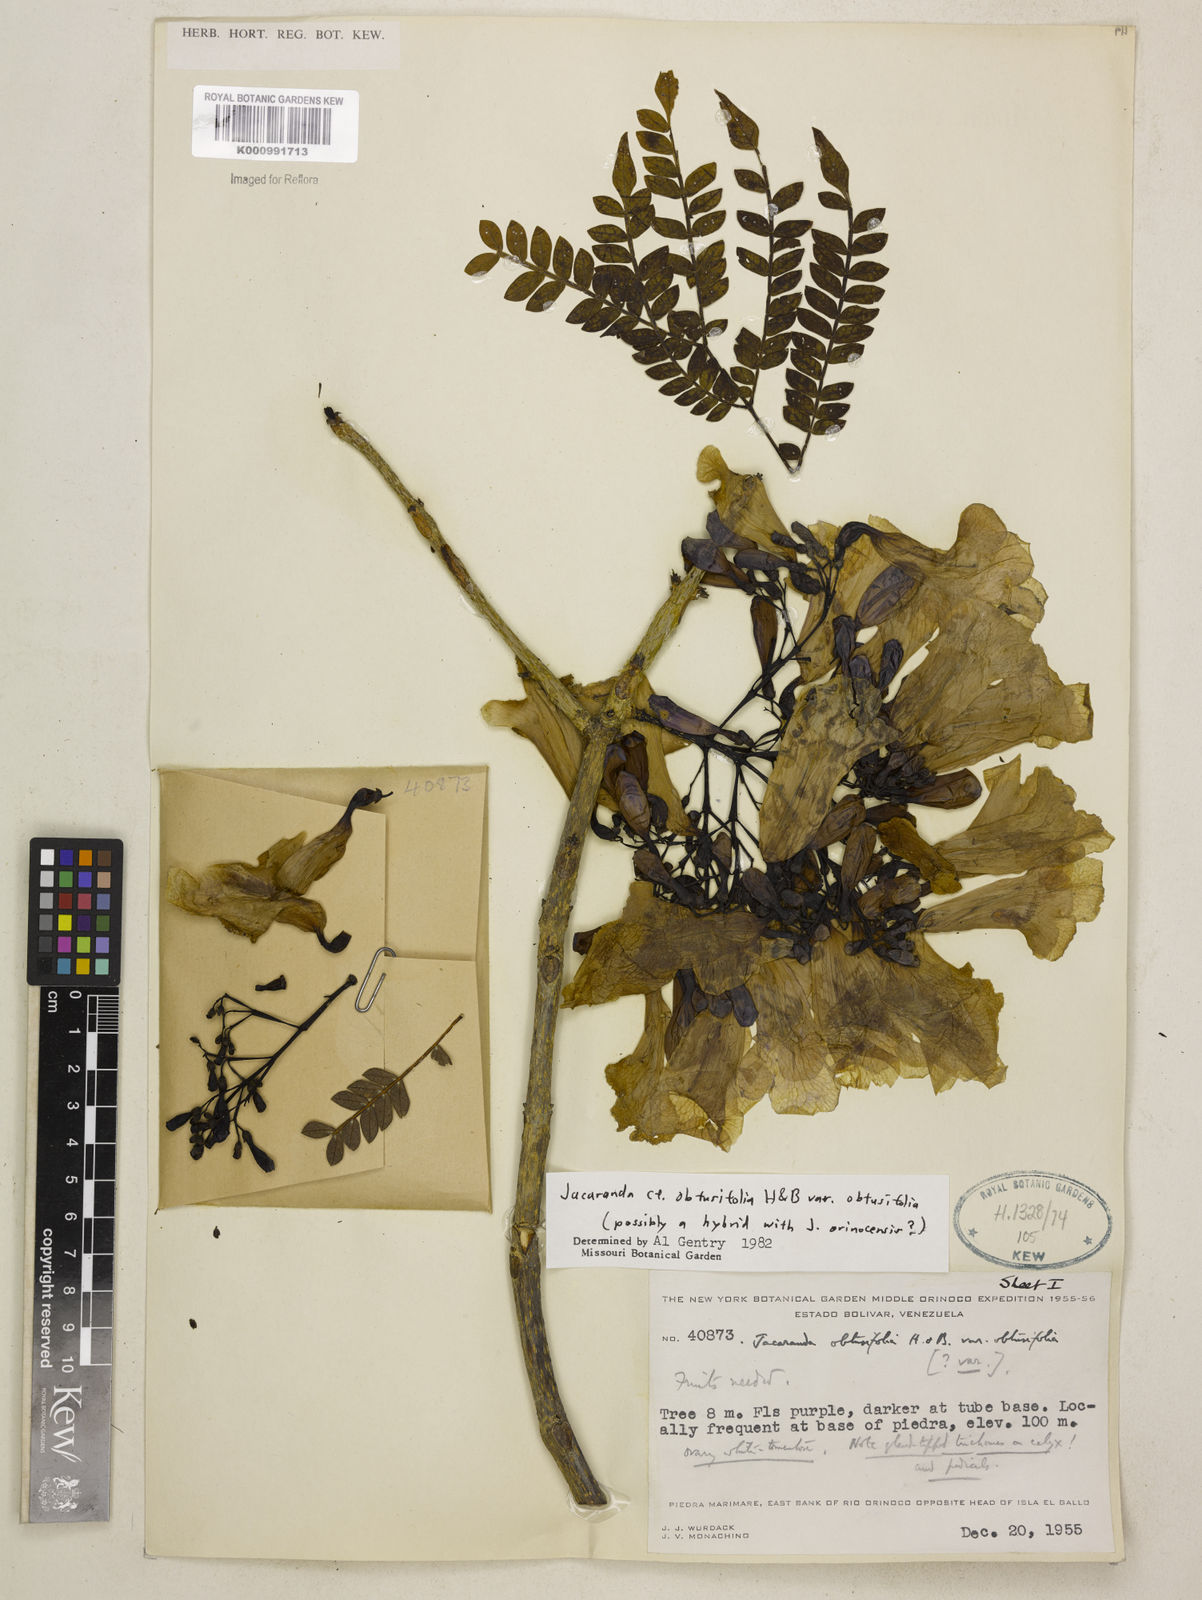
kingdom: Plantae
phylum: Tracheophyta
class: Magnoliopsida
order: Lamiales
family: Bignoniaceae
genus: Jacaranda
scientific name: Jacaranda obtusifolia
